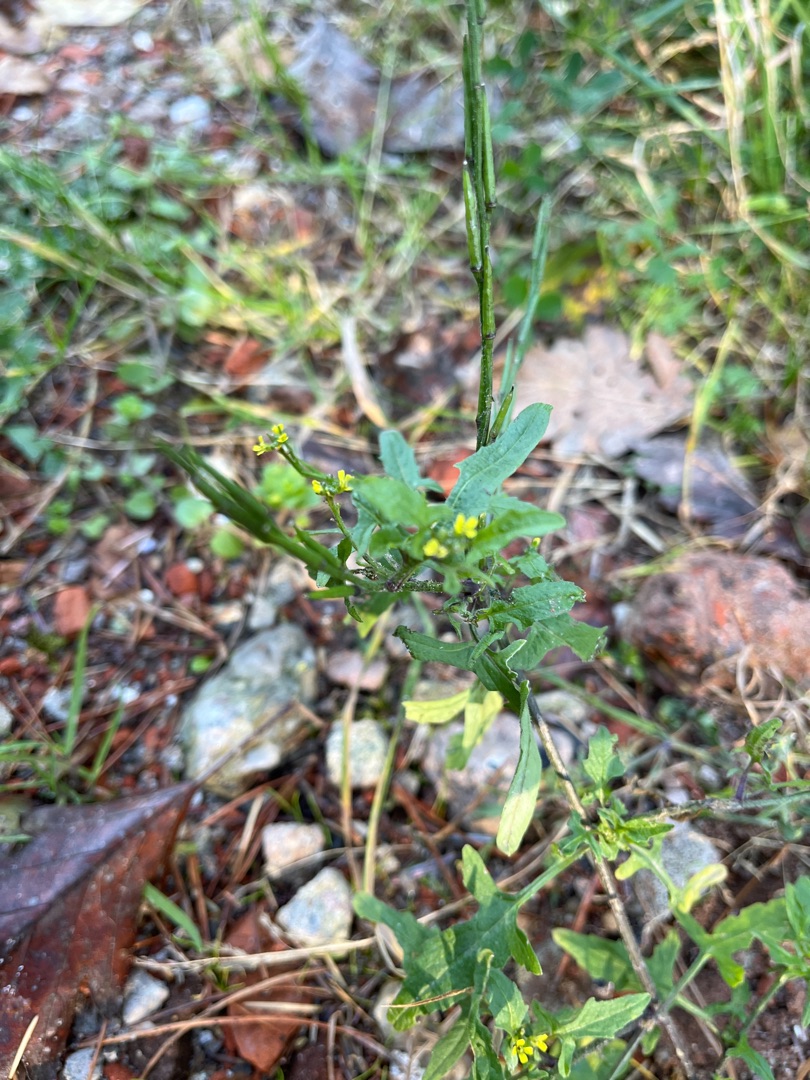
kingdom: Plantae
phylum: Tracheophyta
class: Magnoliopsida
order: Brassicales
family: Brassicaceae
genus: Sisymbrium
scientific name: Sisymbrium officinale
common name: Rank vejsennep
